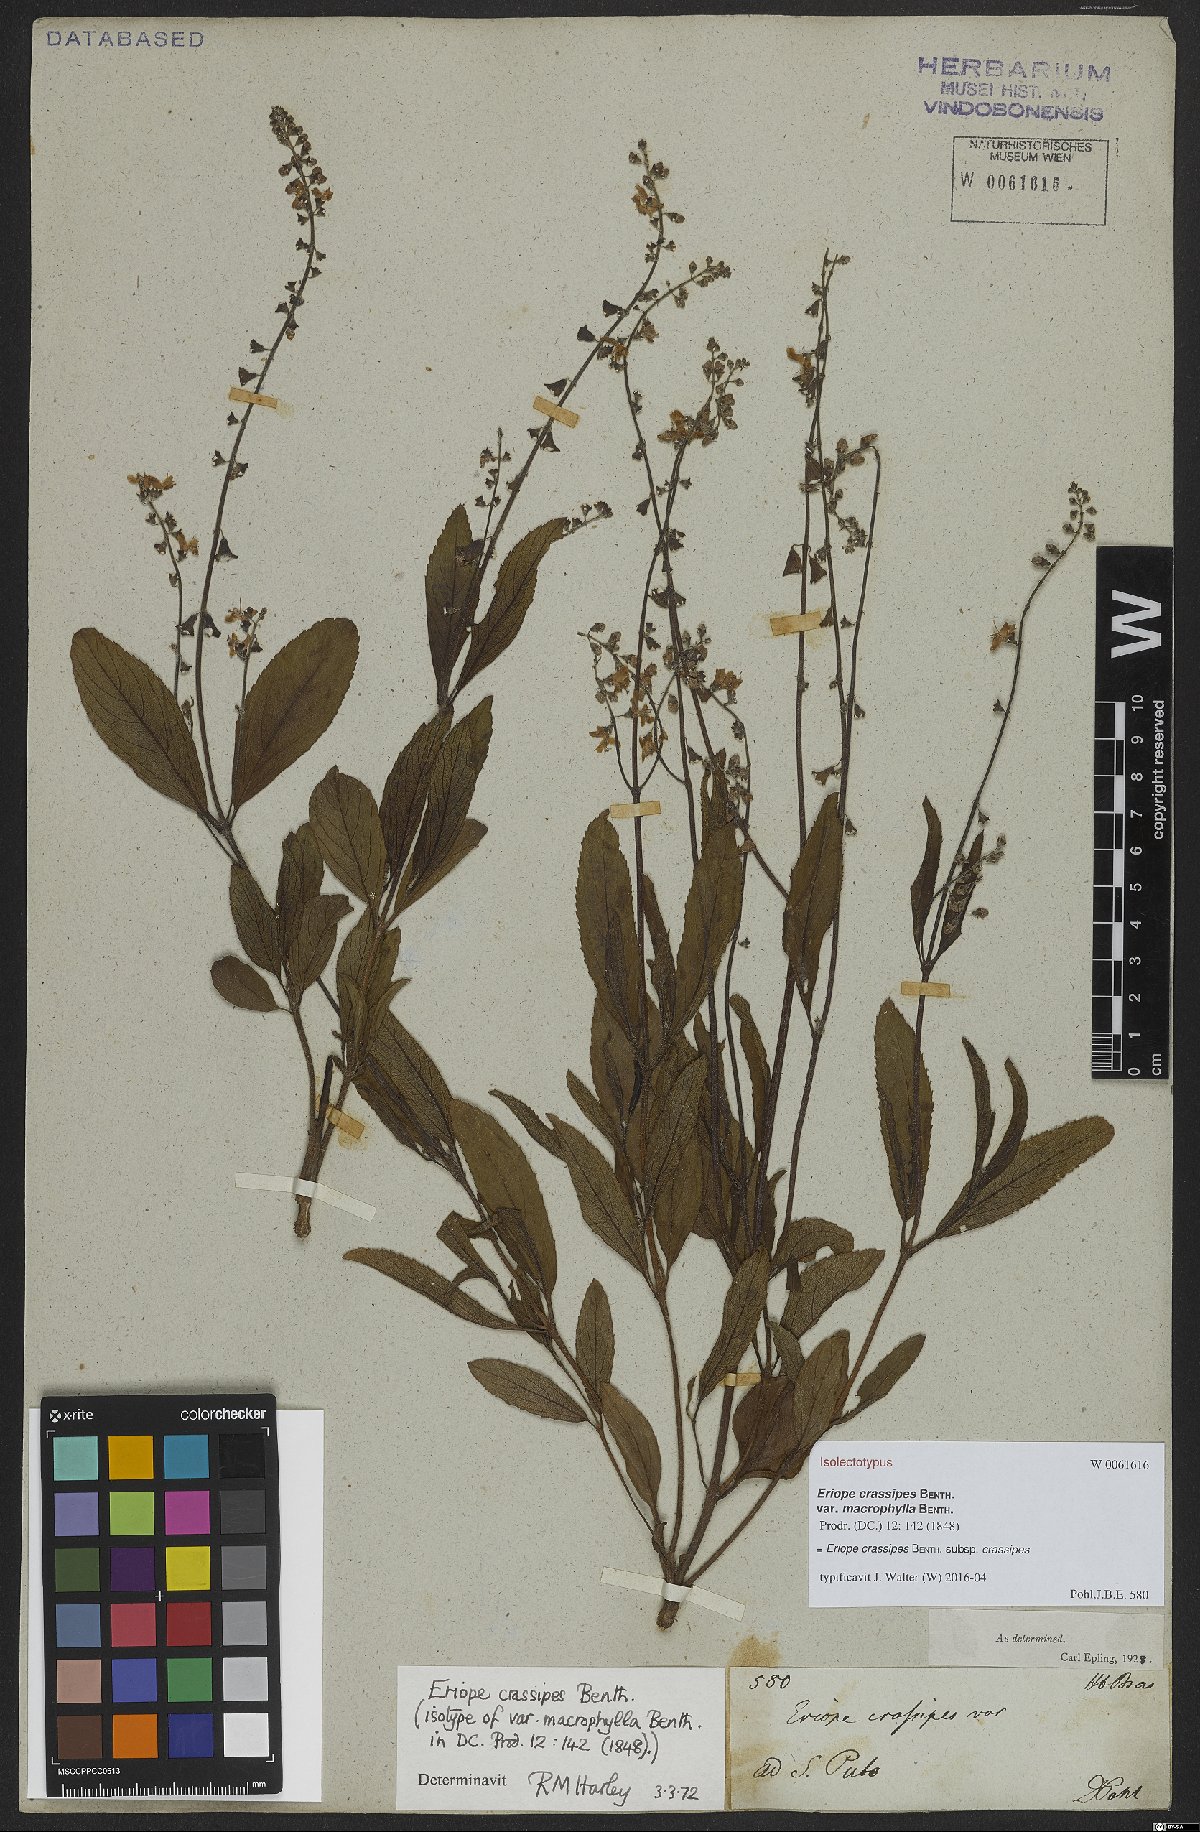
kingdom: Plantae
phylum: Tracheophyta
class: Magnoliopsida
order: Lamiales
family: Lamiaceae
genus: Eriope
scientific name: Eriope crassipes
